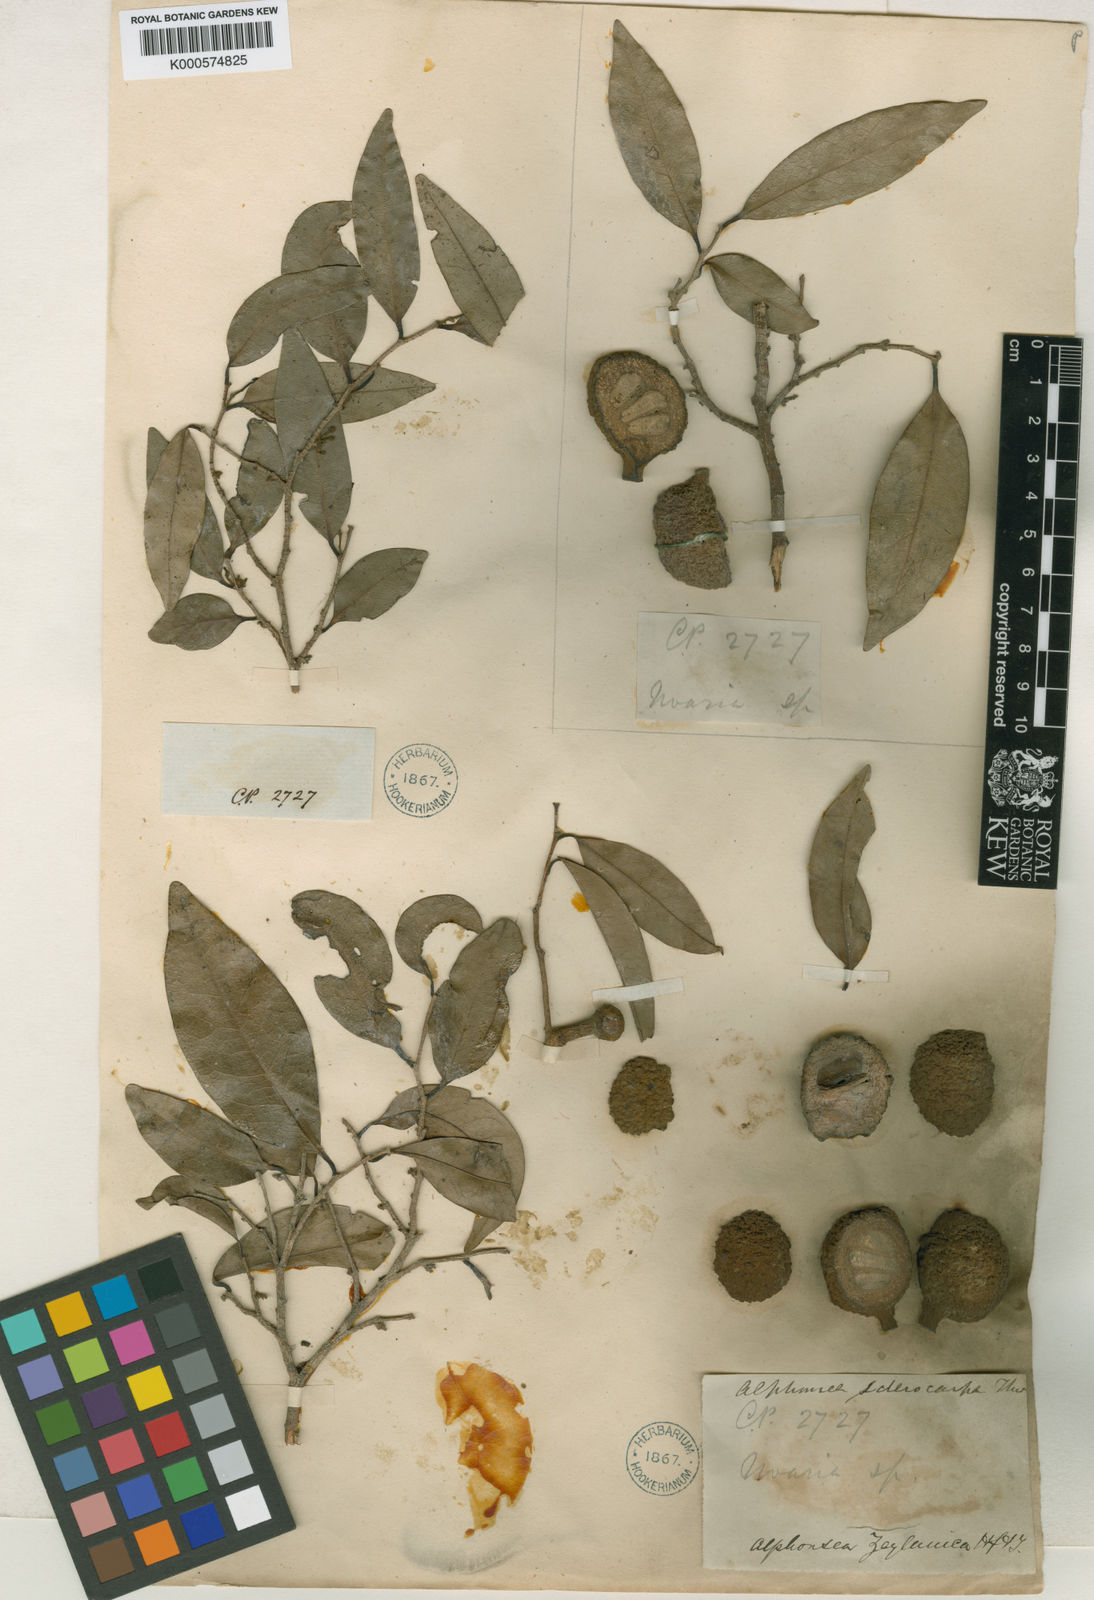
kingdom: Plantae
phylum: Tracheophyta
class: Magnoliopsida
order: Magnoliales
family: Annonaceae
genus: Alphonsea
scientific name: Alphonsea lutea
